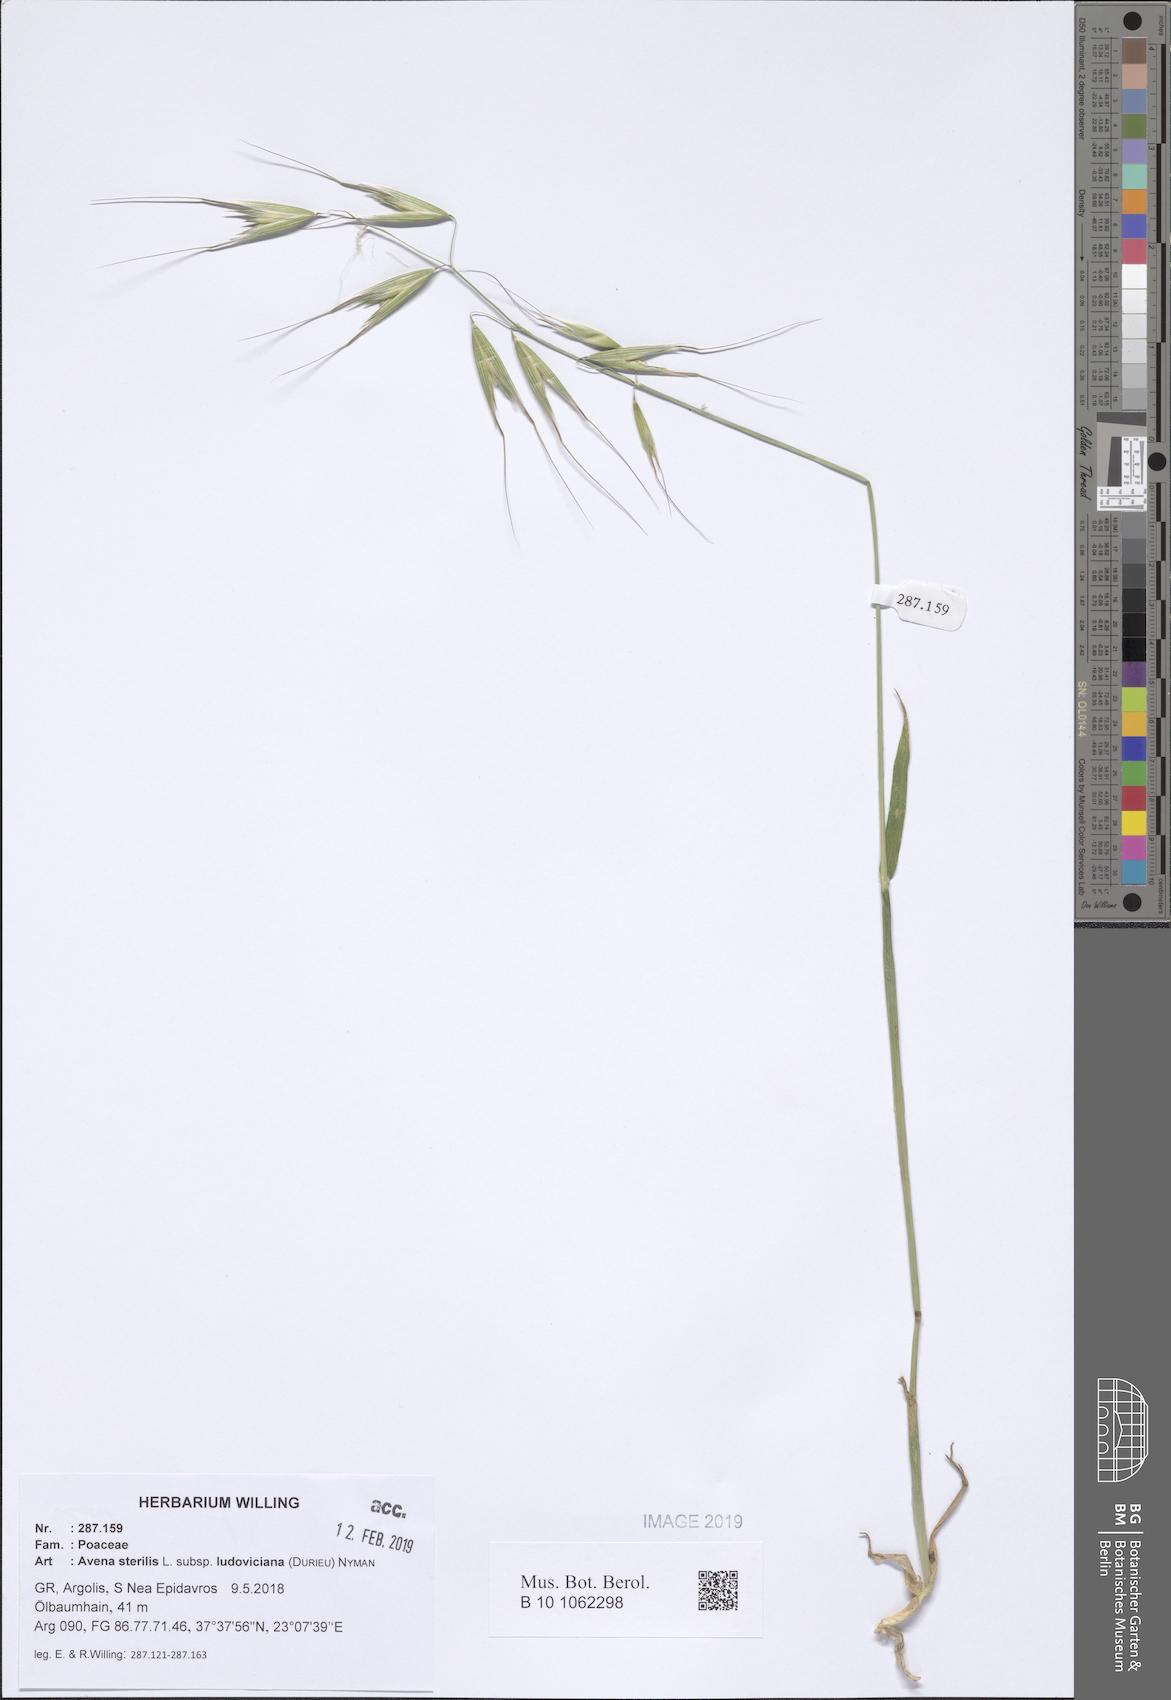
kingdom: Plantae
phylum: Tracheophyta
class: Liliopsida
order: Poales
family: Poaceae
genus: Avena
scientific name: Avena sterilis
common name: Animated oat
